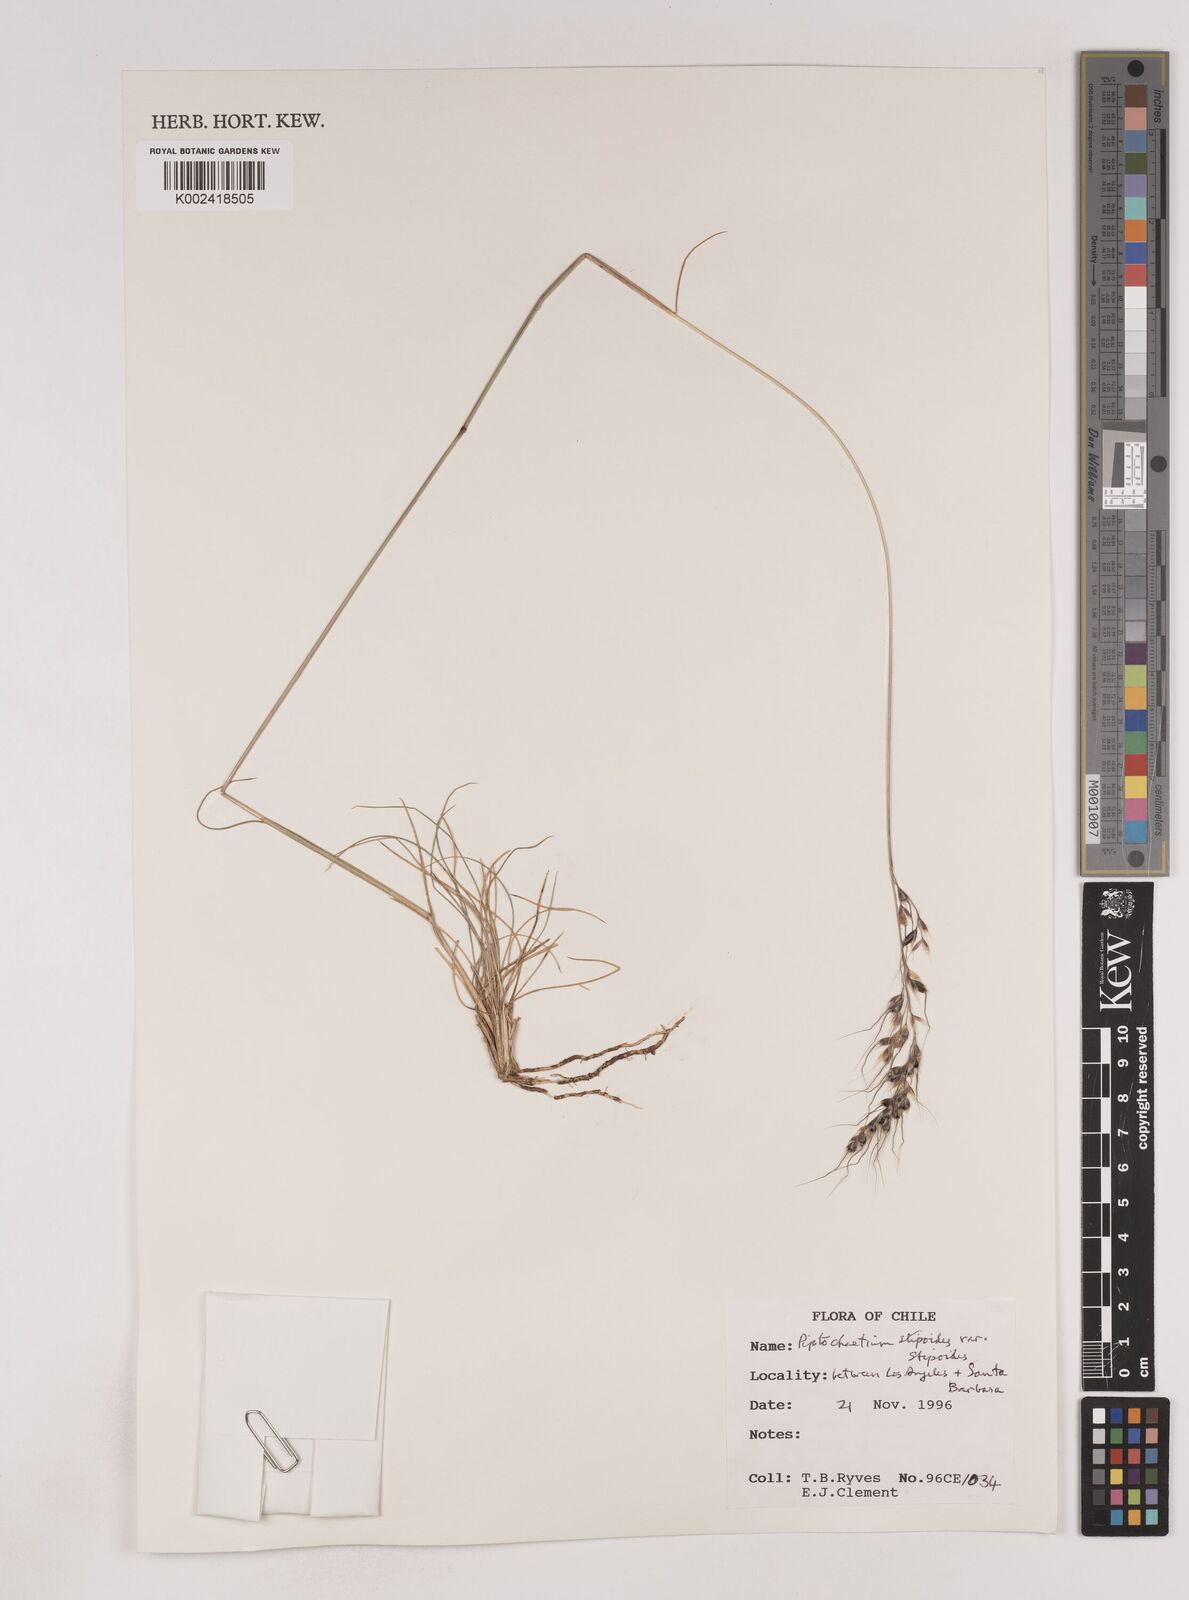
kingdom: Plantae
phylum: Tracheophyta
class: Liliopsida
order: Poales
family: Poaceae
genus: Piptochaetium
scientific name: Piptochaetium stipoides
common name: Purple speargrass
